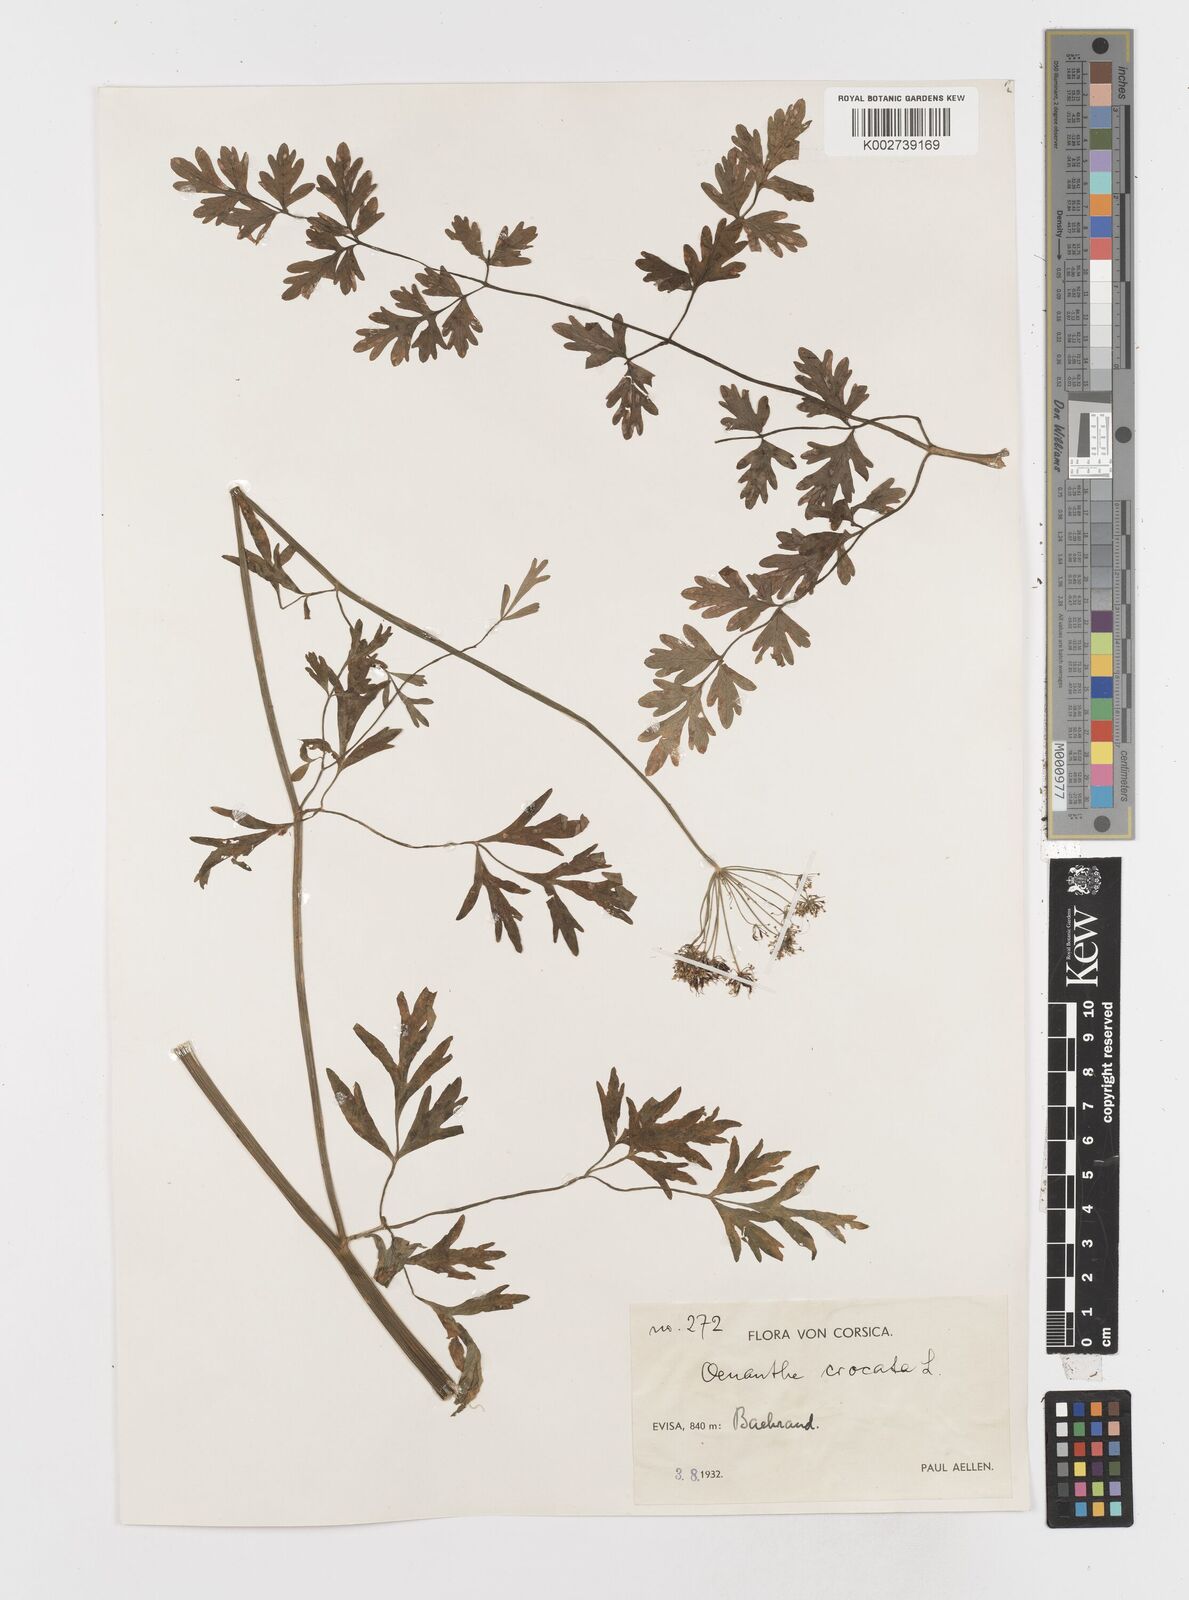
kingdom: Plantae
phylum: Tracheophyta
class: Magnoliopsida
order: Apiales
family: Apiaceae
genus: Oenanthe
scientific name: Oenanthe crocata
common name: Hemlock water-dropwort
